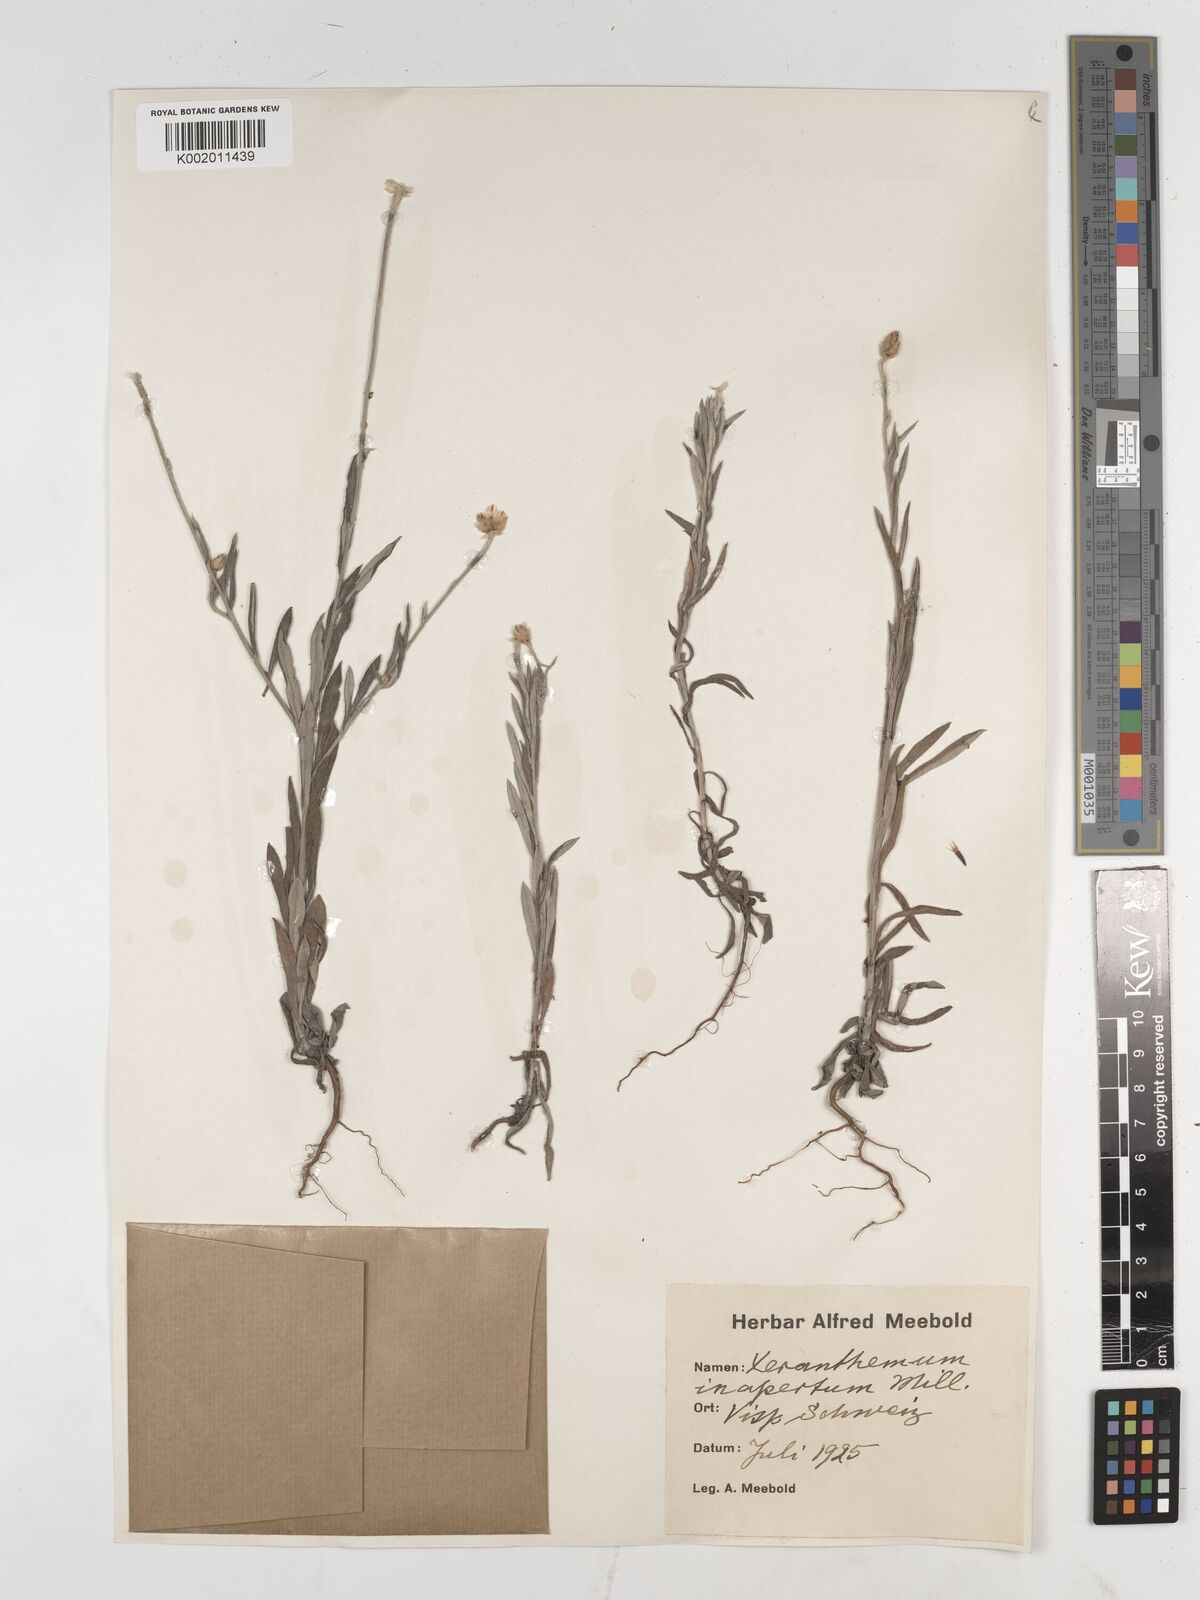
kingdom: Plantae
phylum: Tracheophyta
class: Magnoliopsida
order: Asterales
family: Asteraceae
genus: Xeranthemum
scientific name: Xeranthemum
